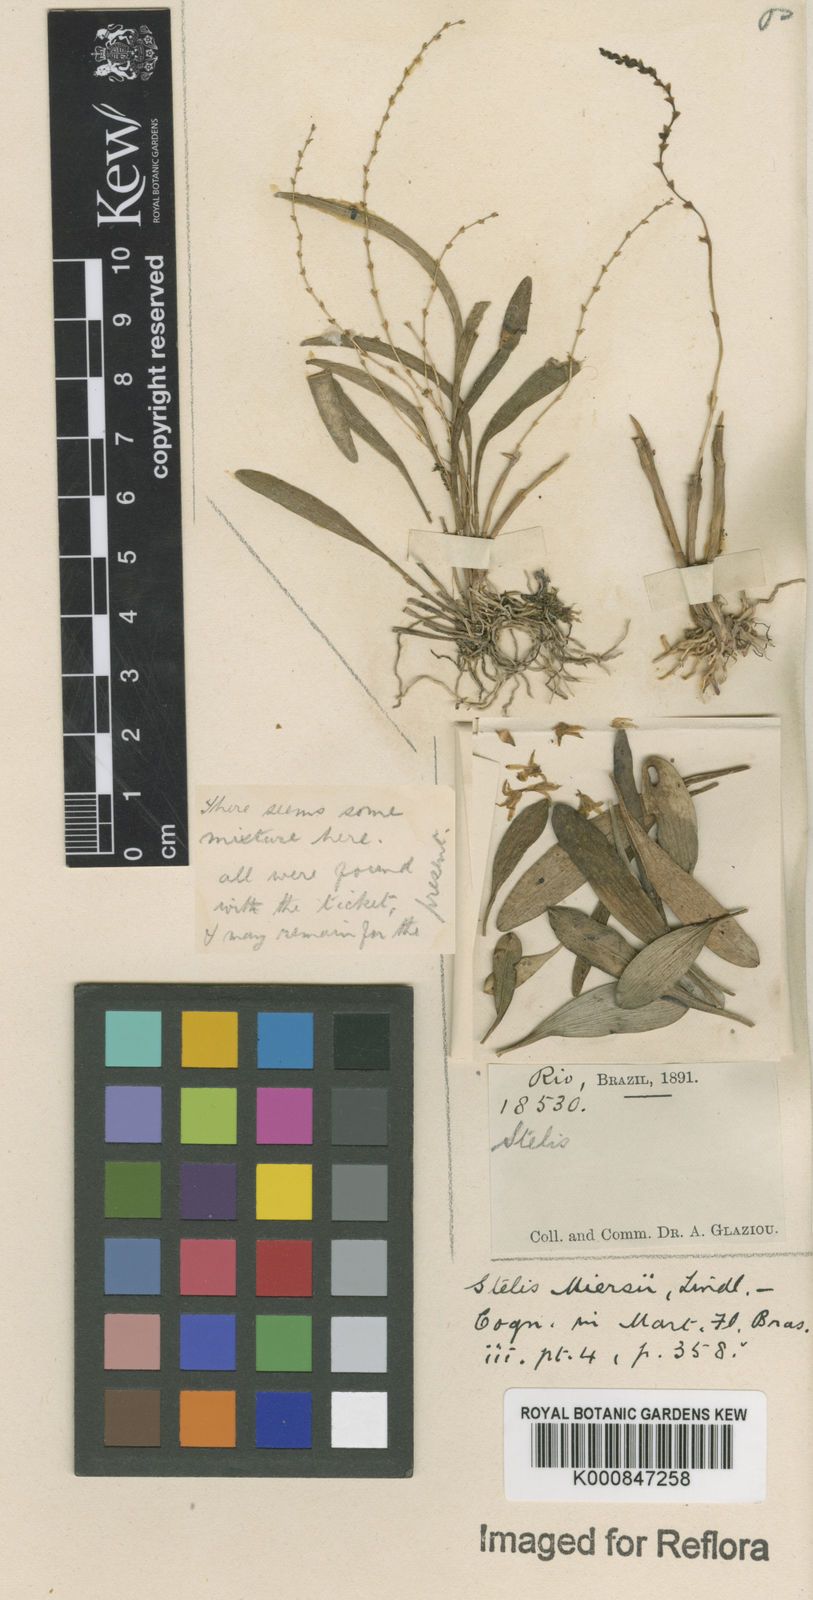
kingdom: Plantae
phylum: Tracheophyta
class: Liliopsida
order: Asparagales
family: Orchidaceae
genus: Stelis
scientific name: Stelis aprica
